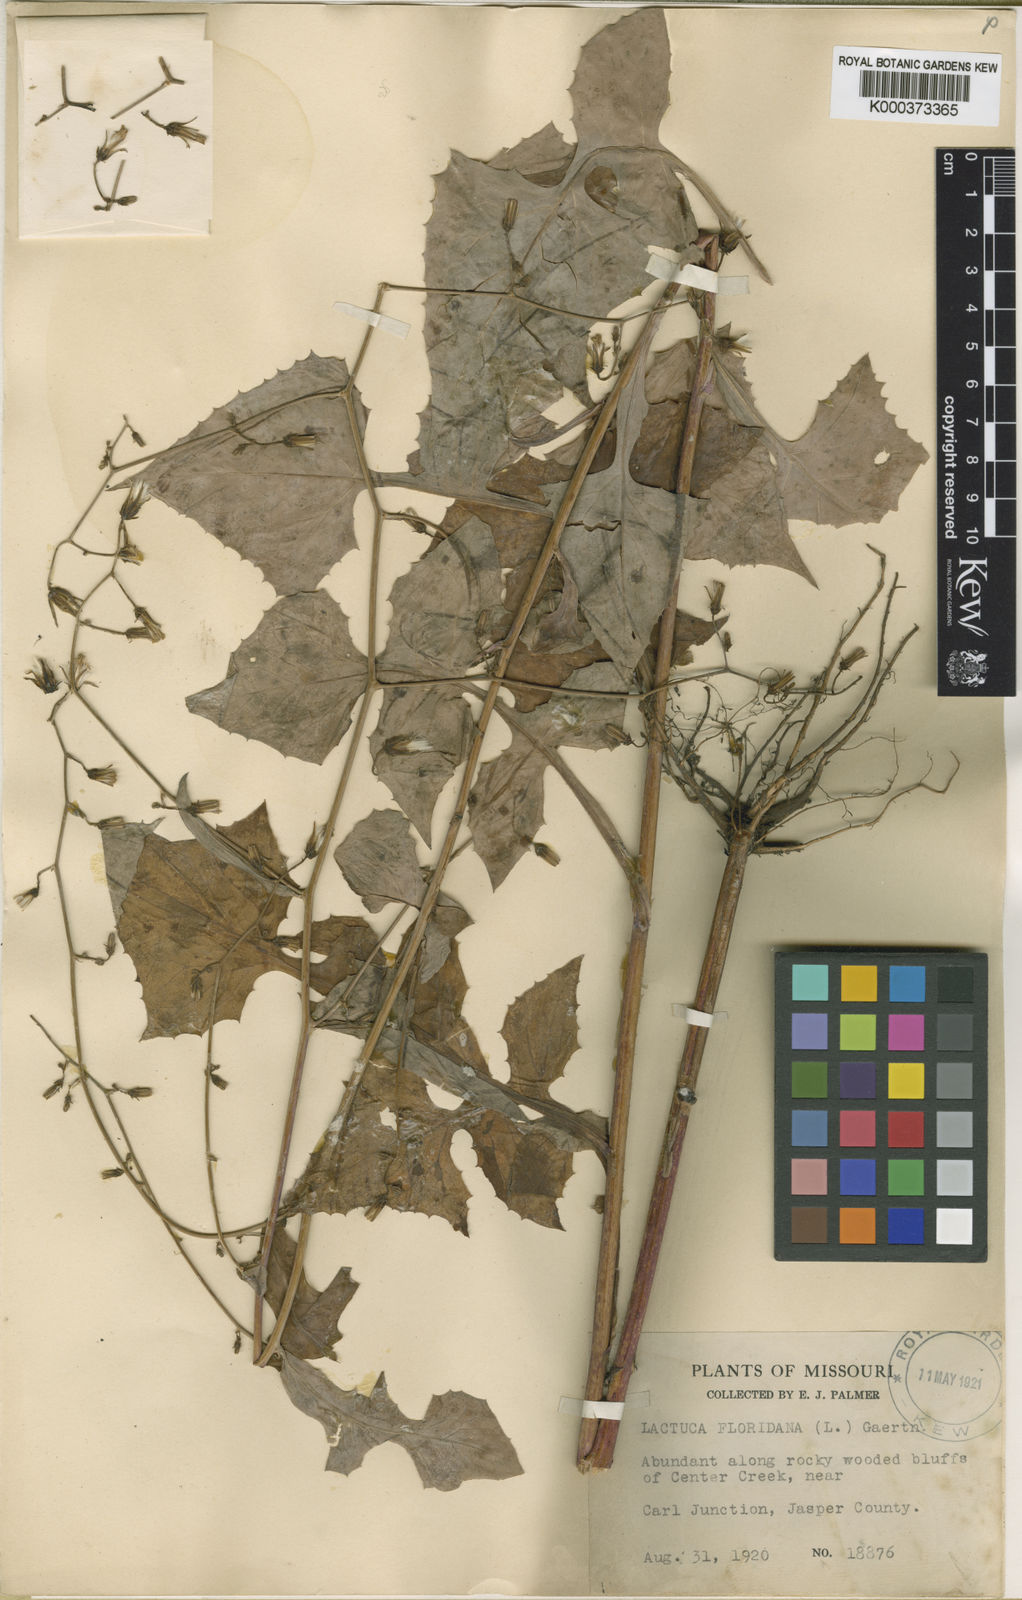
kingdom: Plantae
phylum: Tracheophyta
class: Magnoliopsida
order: Asterales
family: Asteraceae
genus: Lactuca
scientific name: Lactuca floridana
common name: Woodland lettuce
